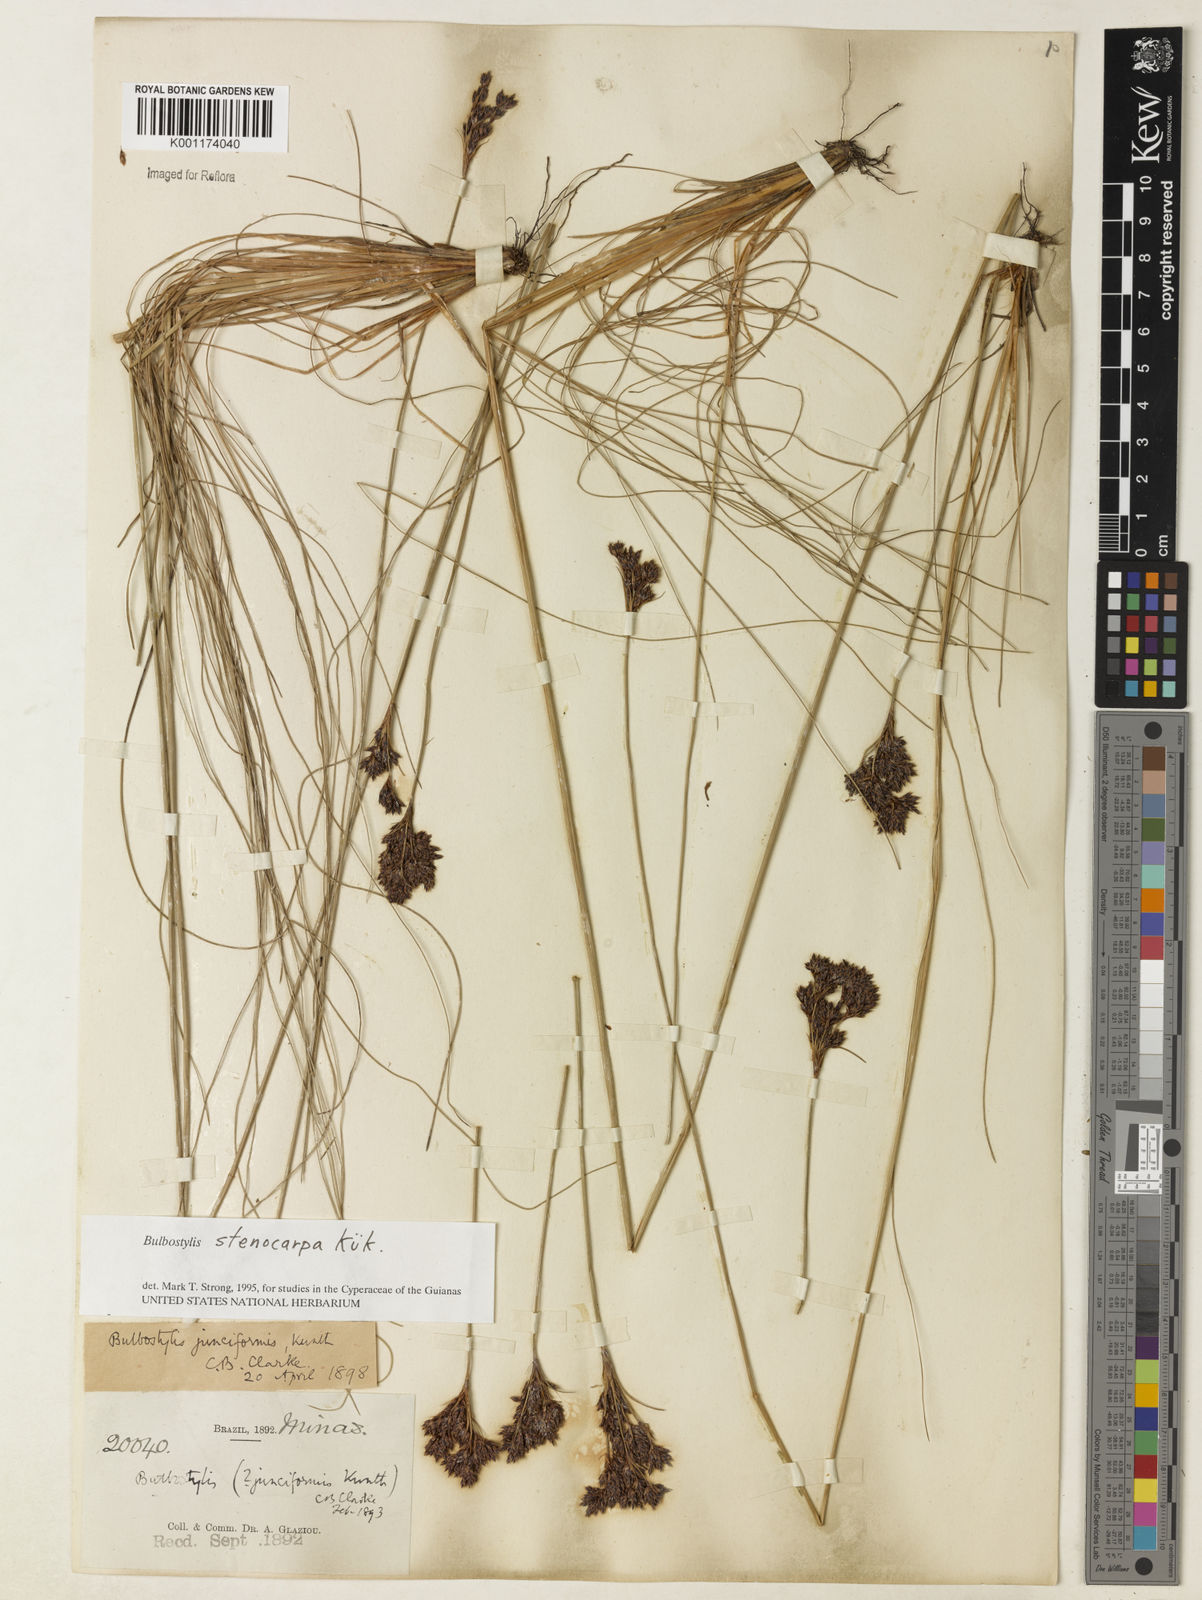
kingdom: Plantae
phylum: Tracheophyta
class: Liliopsida
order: Poales
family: Cyperaceae
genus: Bulbostylis
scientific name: Bulbostylis stenocarpa
